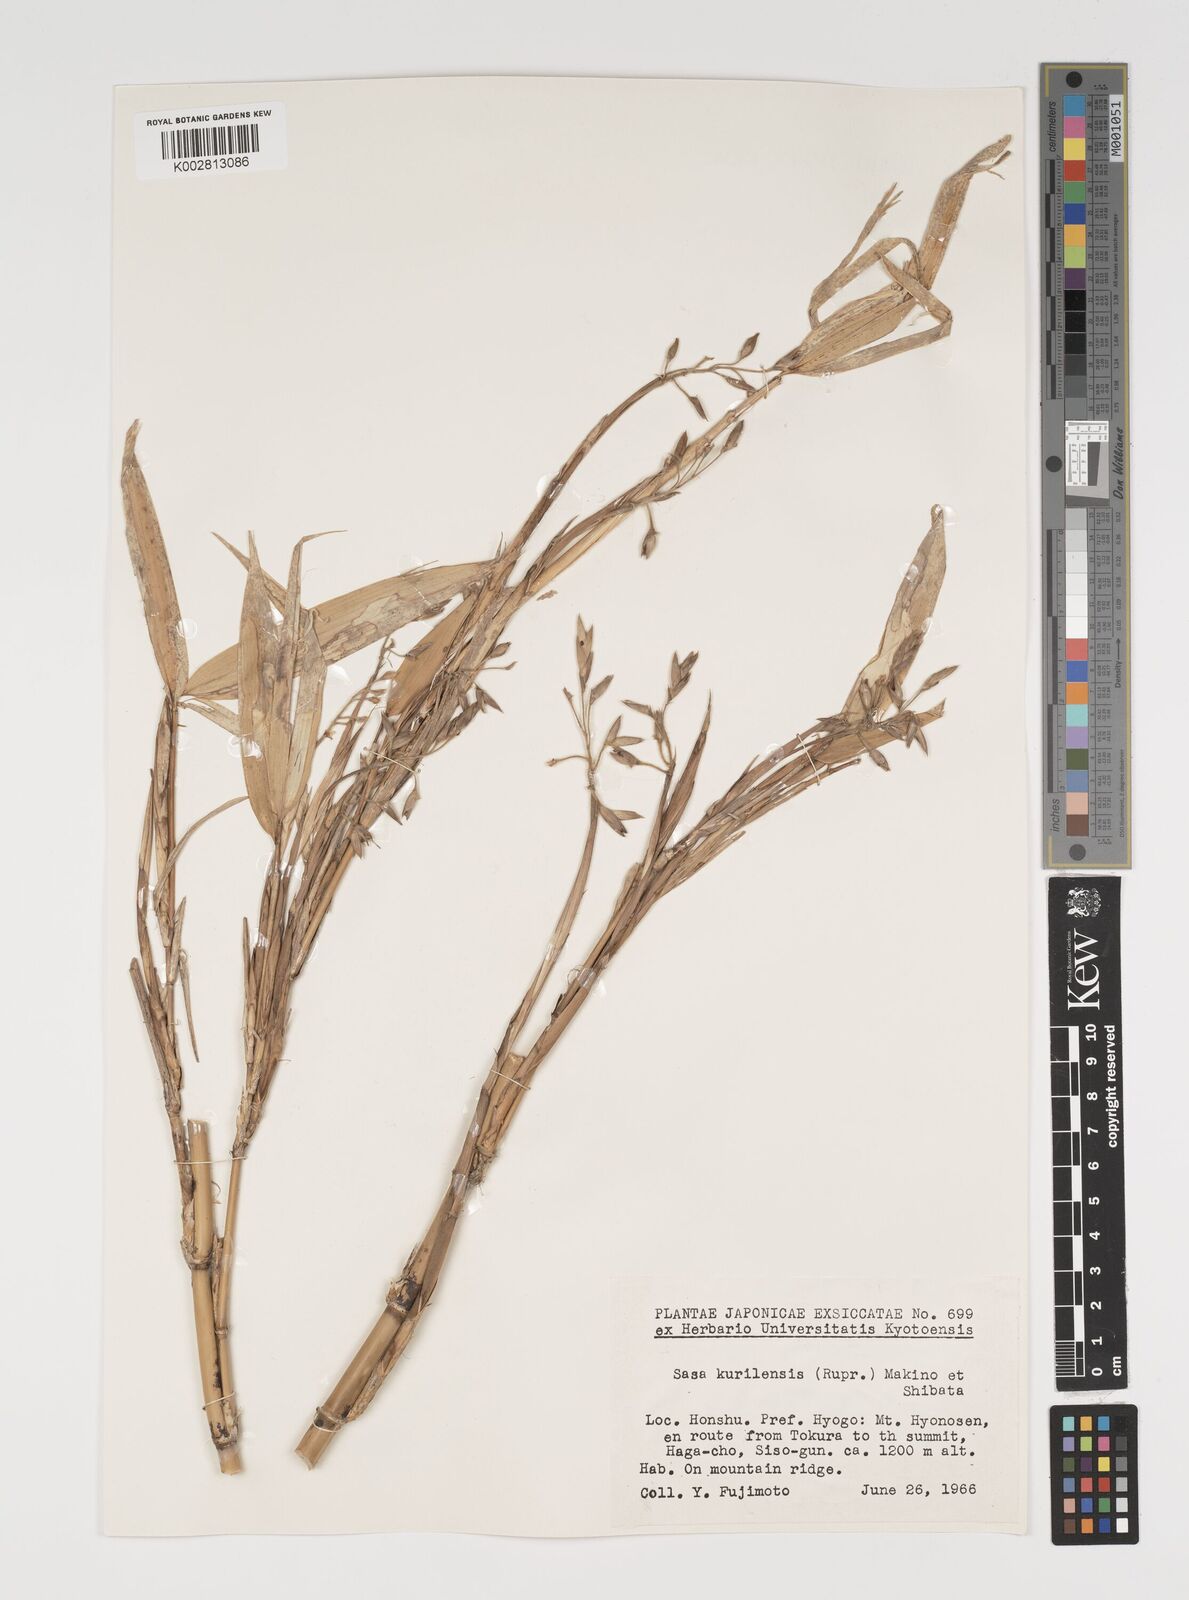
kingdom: Plantae
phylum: Tracheophyta
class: Liliopsida
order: Poales
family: Poaceae
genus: Sasa
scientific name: Sasa kurilensis
